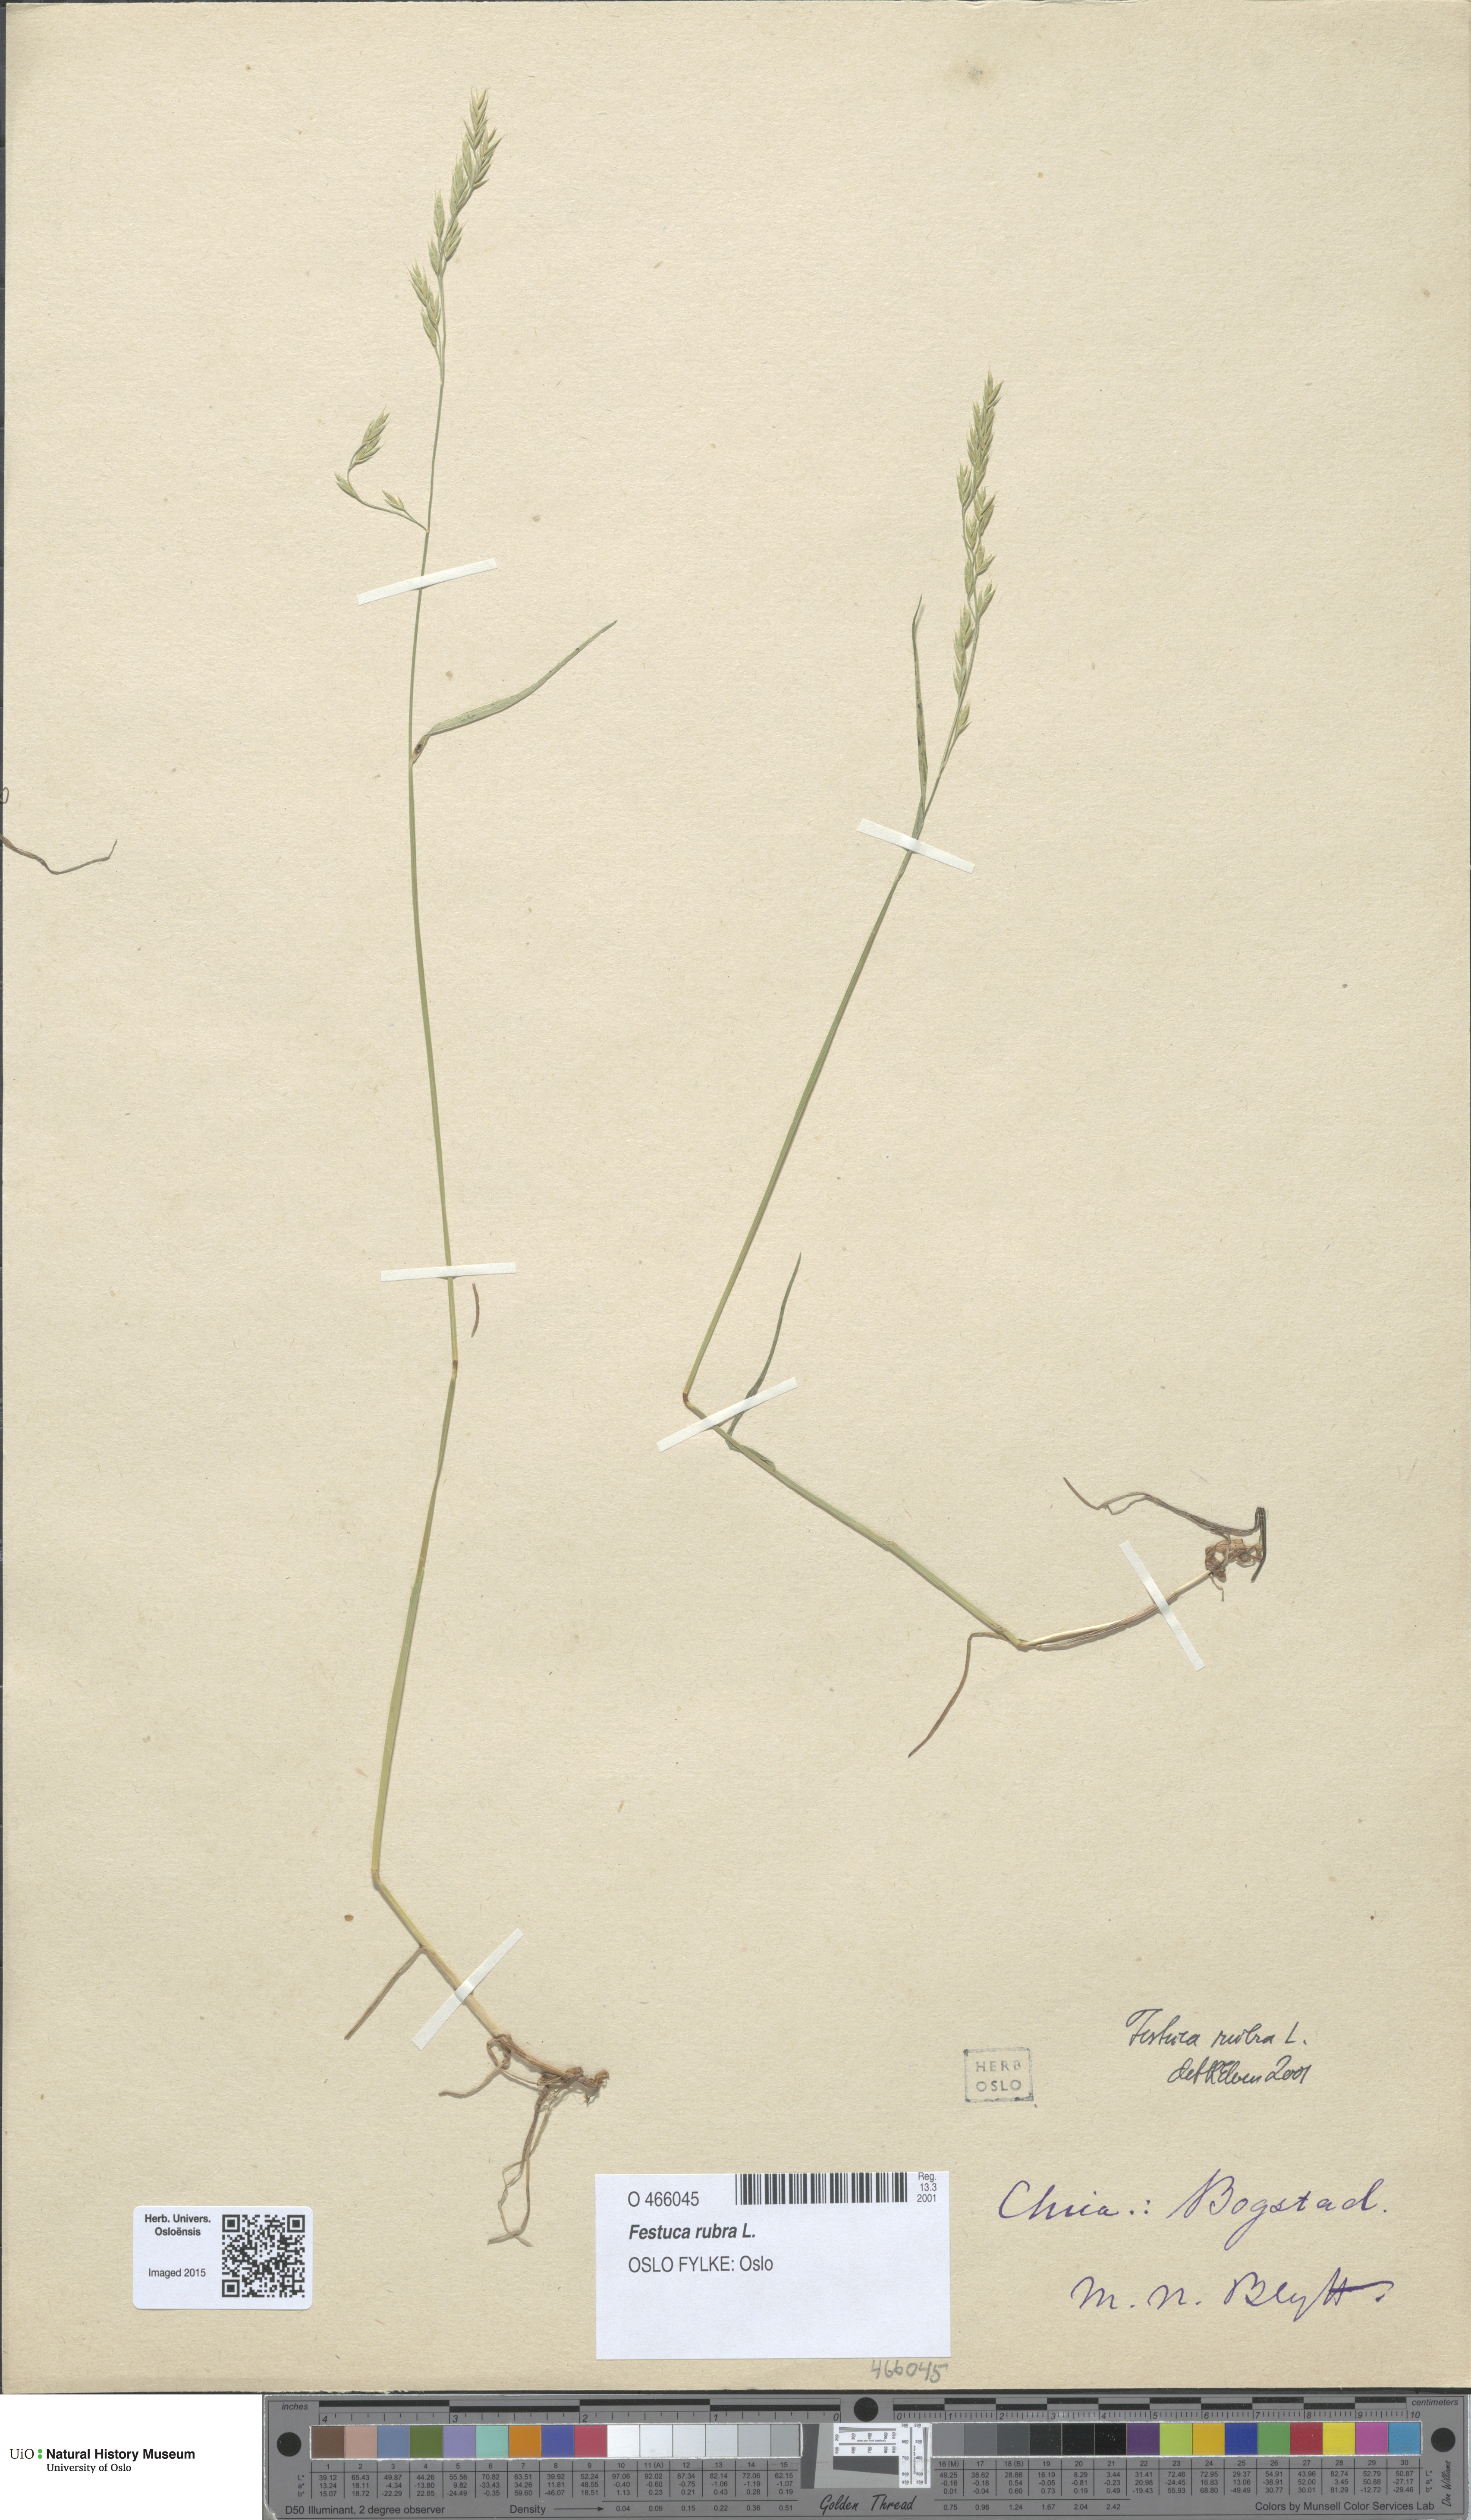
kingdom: Plantae
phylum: Tracheophyta
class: Liliopsida
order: Poales
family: Poaceae
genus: Festuca
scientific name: Festuca rubra
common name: Red fescue
